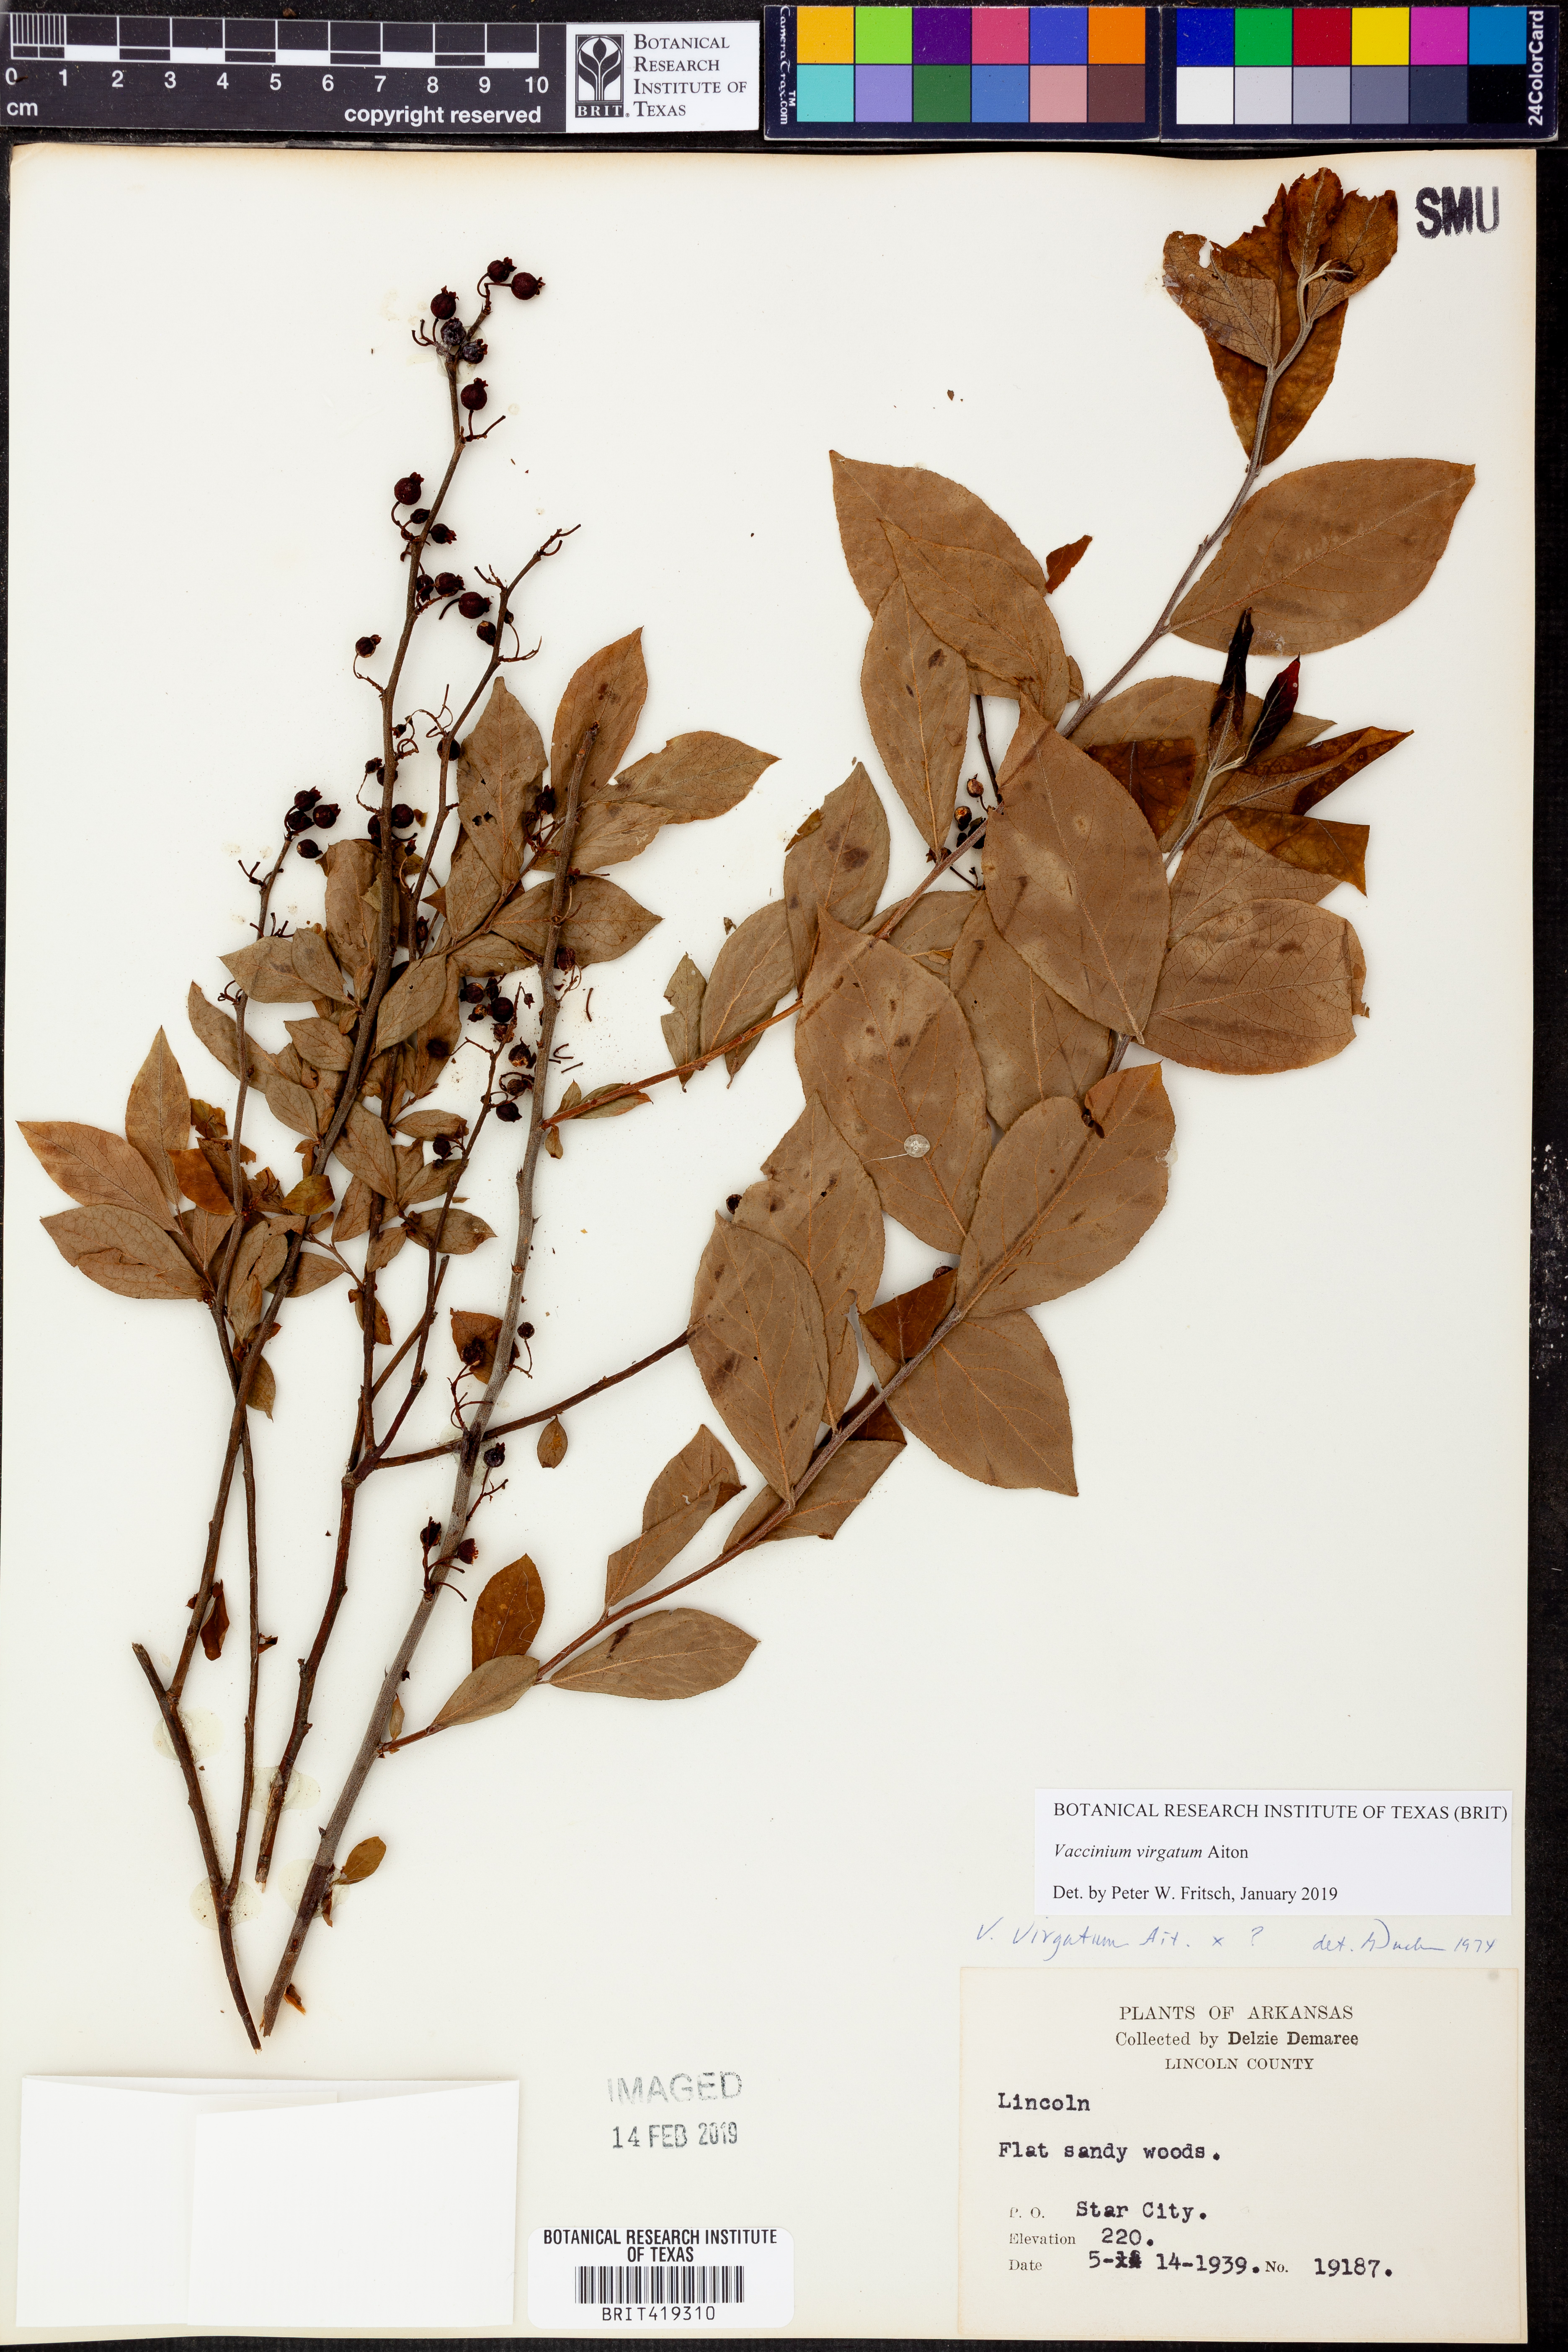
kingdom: Plantae
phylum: Tracheophyta
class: Magnoliopsida
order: Ericales
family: Ericaceae
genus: Vaccinium
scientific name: Vaccinium corymbosum
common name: Blueberry
